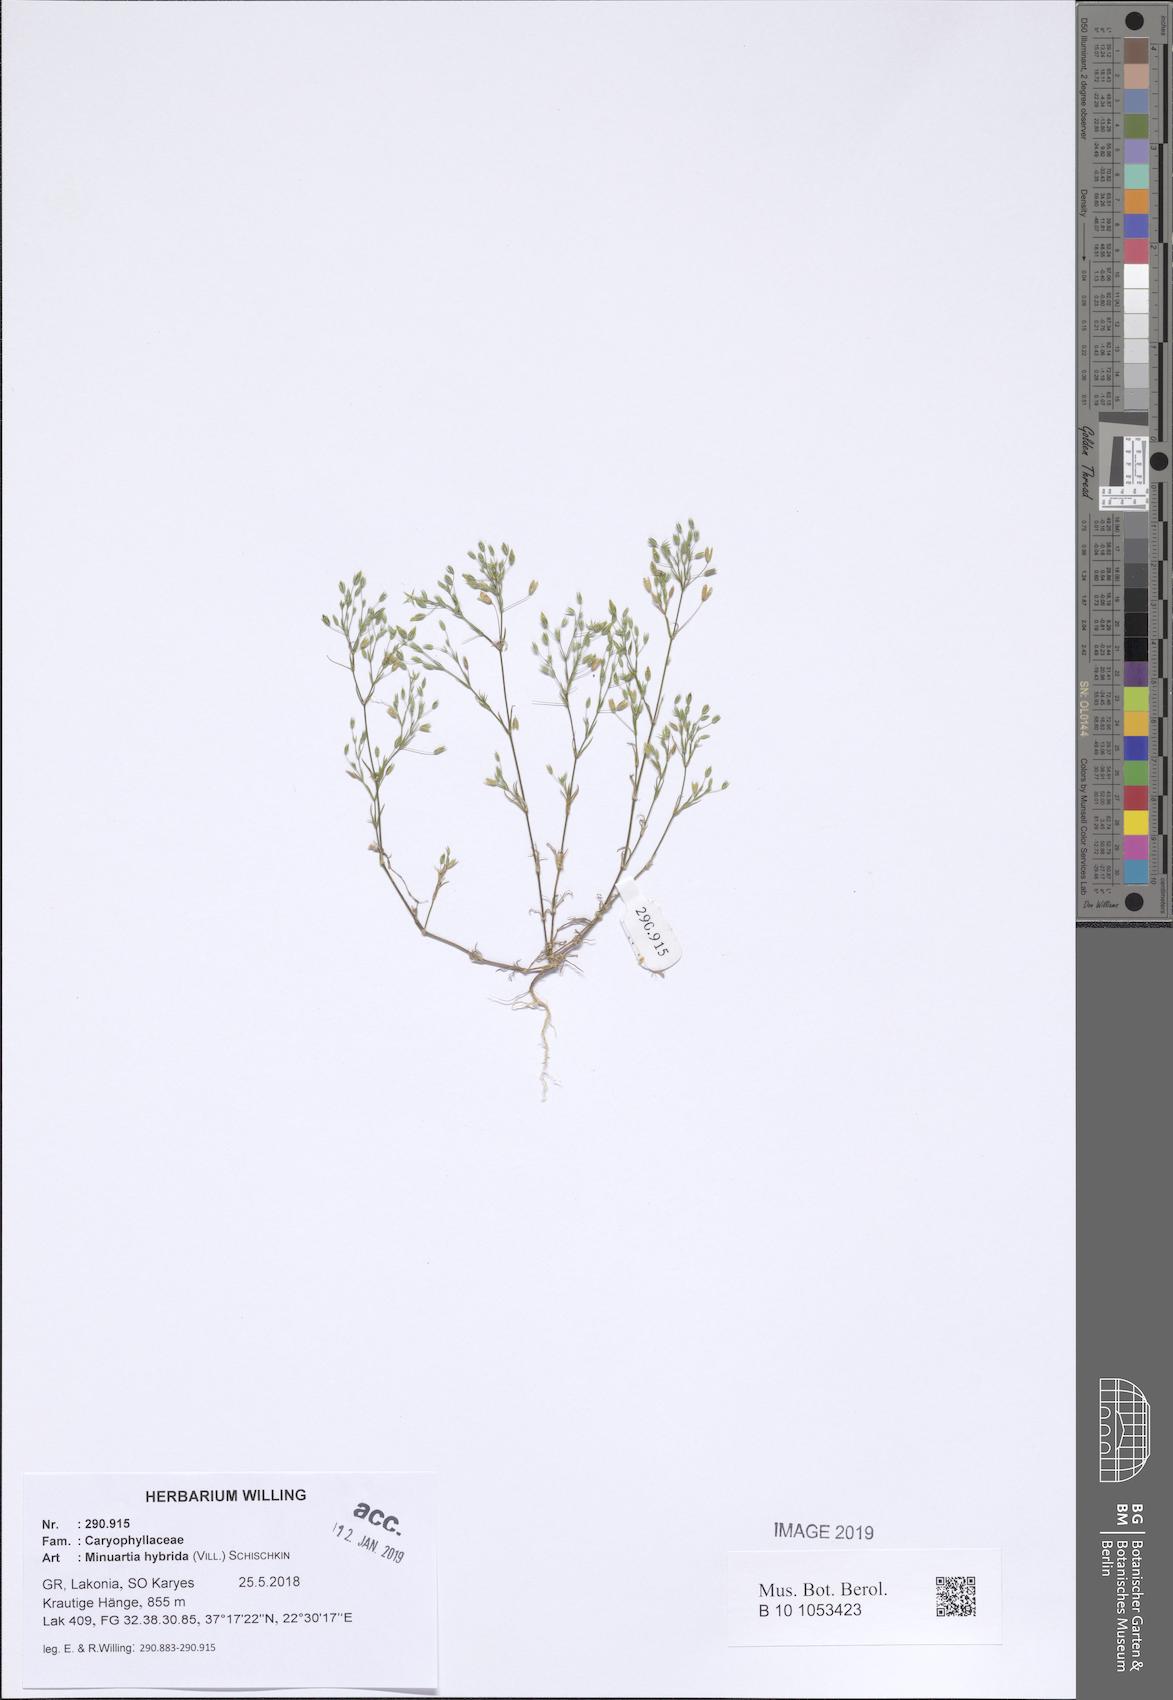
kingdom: Plantae
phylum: Tracheophyta
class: Magnoliopsida
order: Caryophyllales
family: Caryophyllaceae
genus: Sabulina
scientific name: Sabulina tenuifolia
